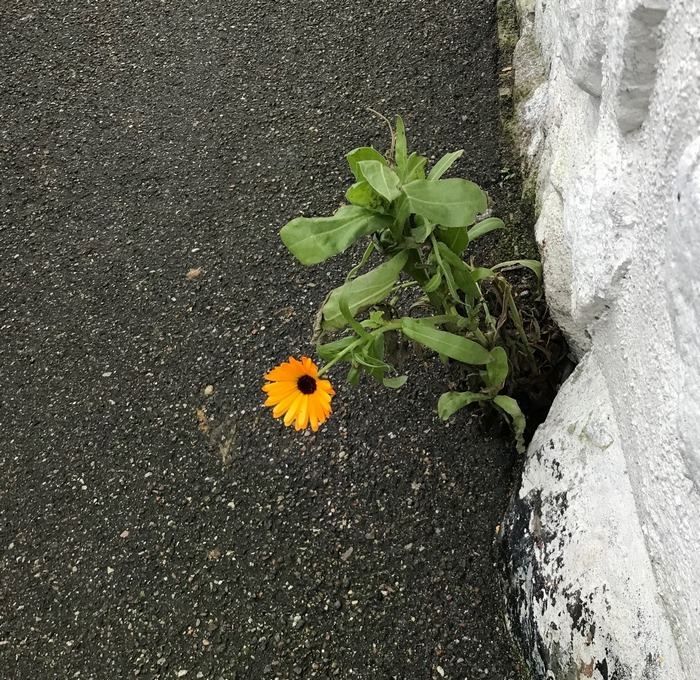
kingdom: Plantae
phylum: Tracheophyta
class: Magnoliopsida
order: Asterales
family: Asteraceae
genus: Calendula
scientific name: Calendula officinalis
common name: Have-morgenfrue
